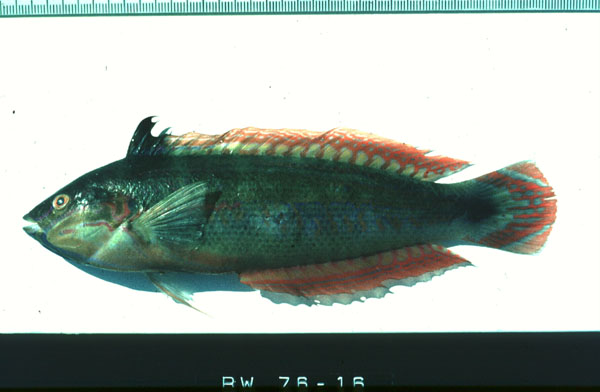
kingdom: Animalia
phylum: Chordata
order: Perciformes
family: Labridae
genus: Coris
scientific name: Coris caudimacula
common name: Spottail coris
